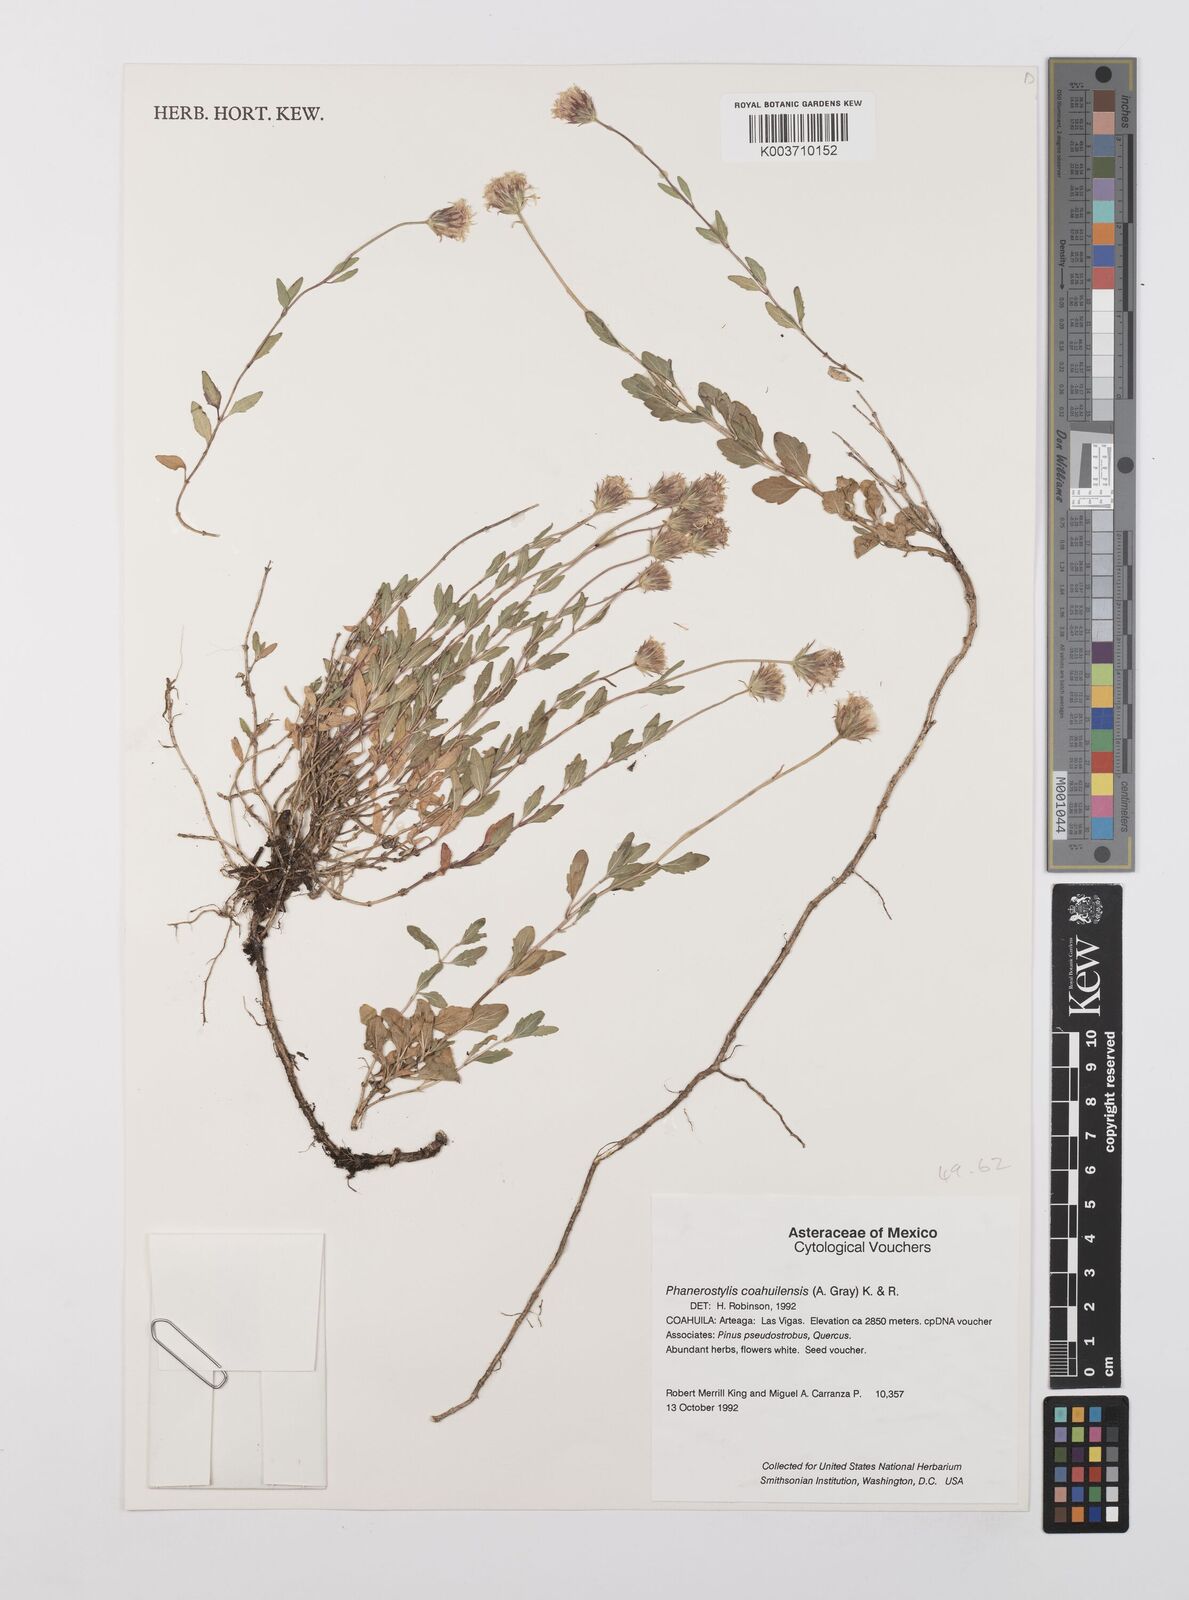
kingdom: Plantae
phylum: Tracheophyta
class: Magnoliopsida
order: Asterales
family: Asteraceae
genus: Brickellia
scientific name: Brickellia coahuilensis
